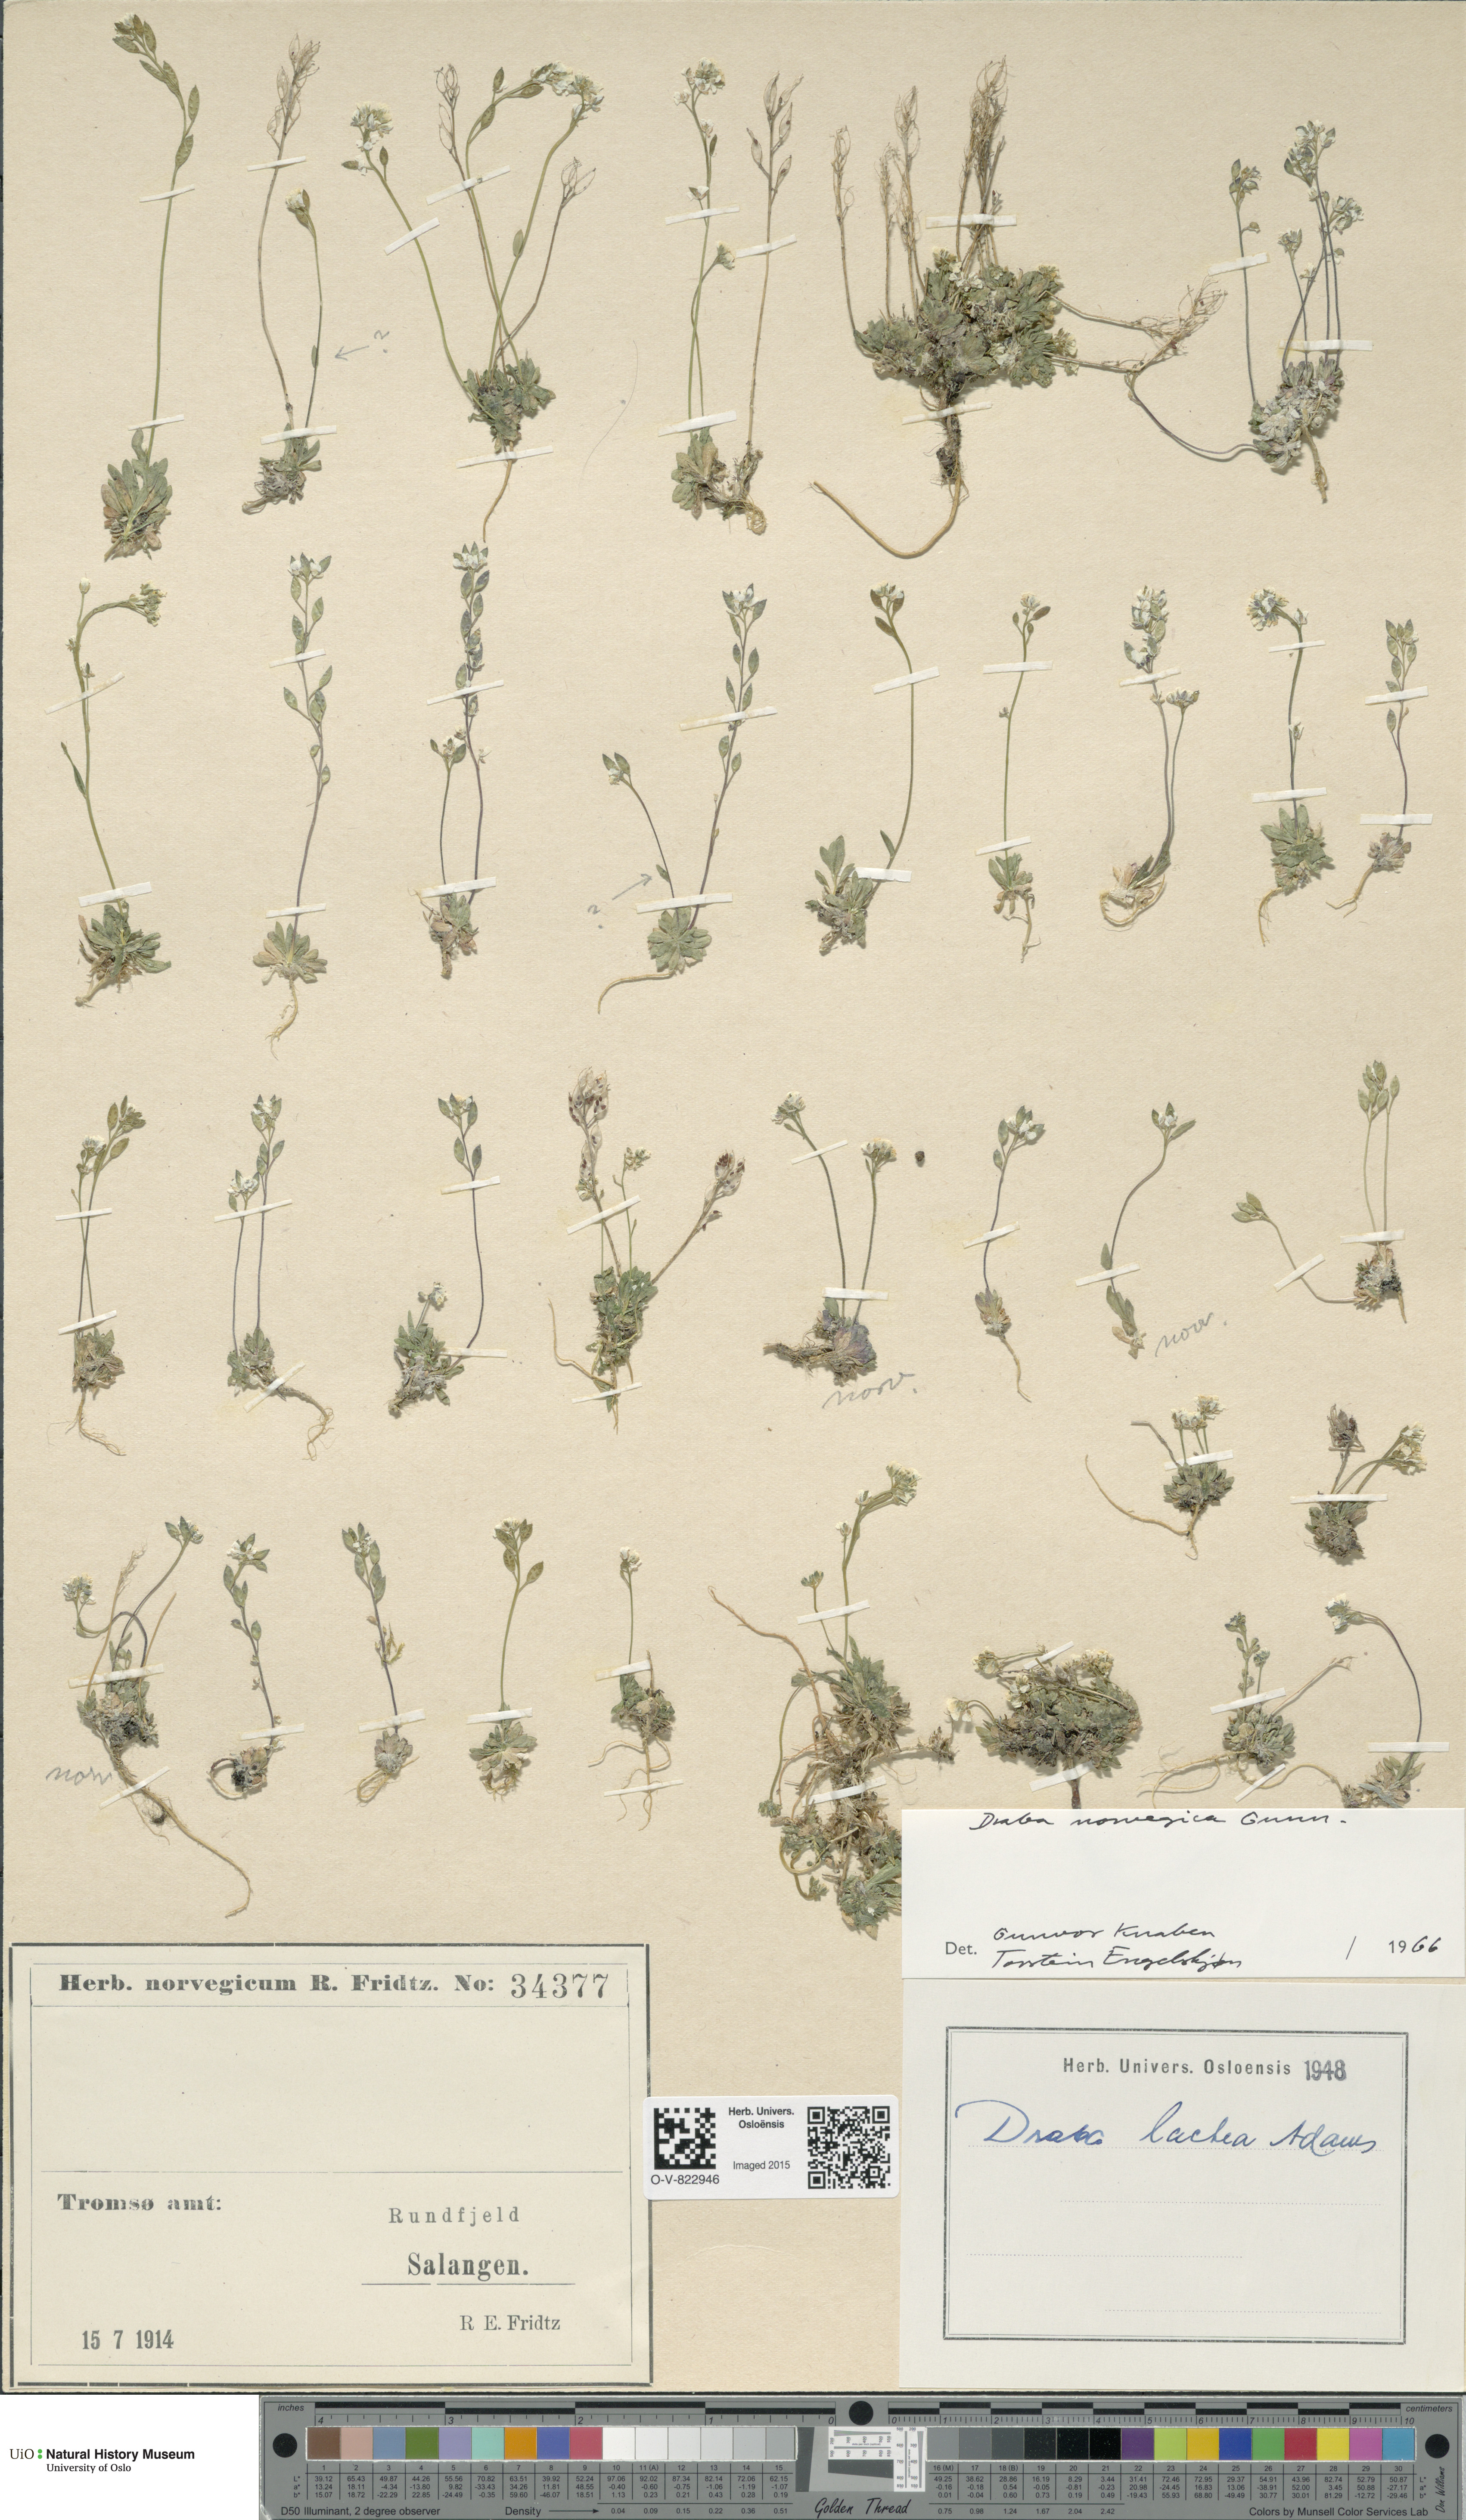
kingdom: Plantae
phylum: Tracheophyta
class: Magnoliopsida
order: Brassicales
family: Brassicaceae
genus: Draba
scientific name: Draba norvegica
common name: Rock whitlowgrass
